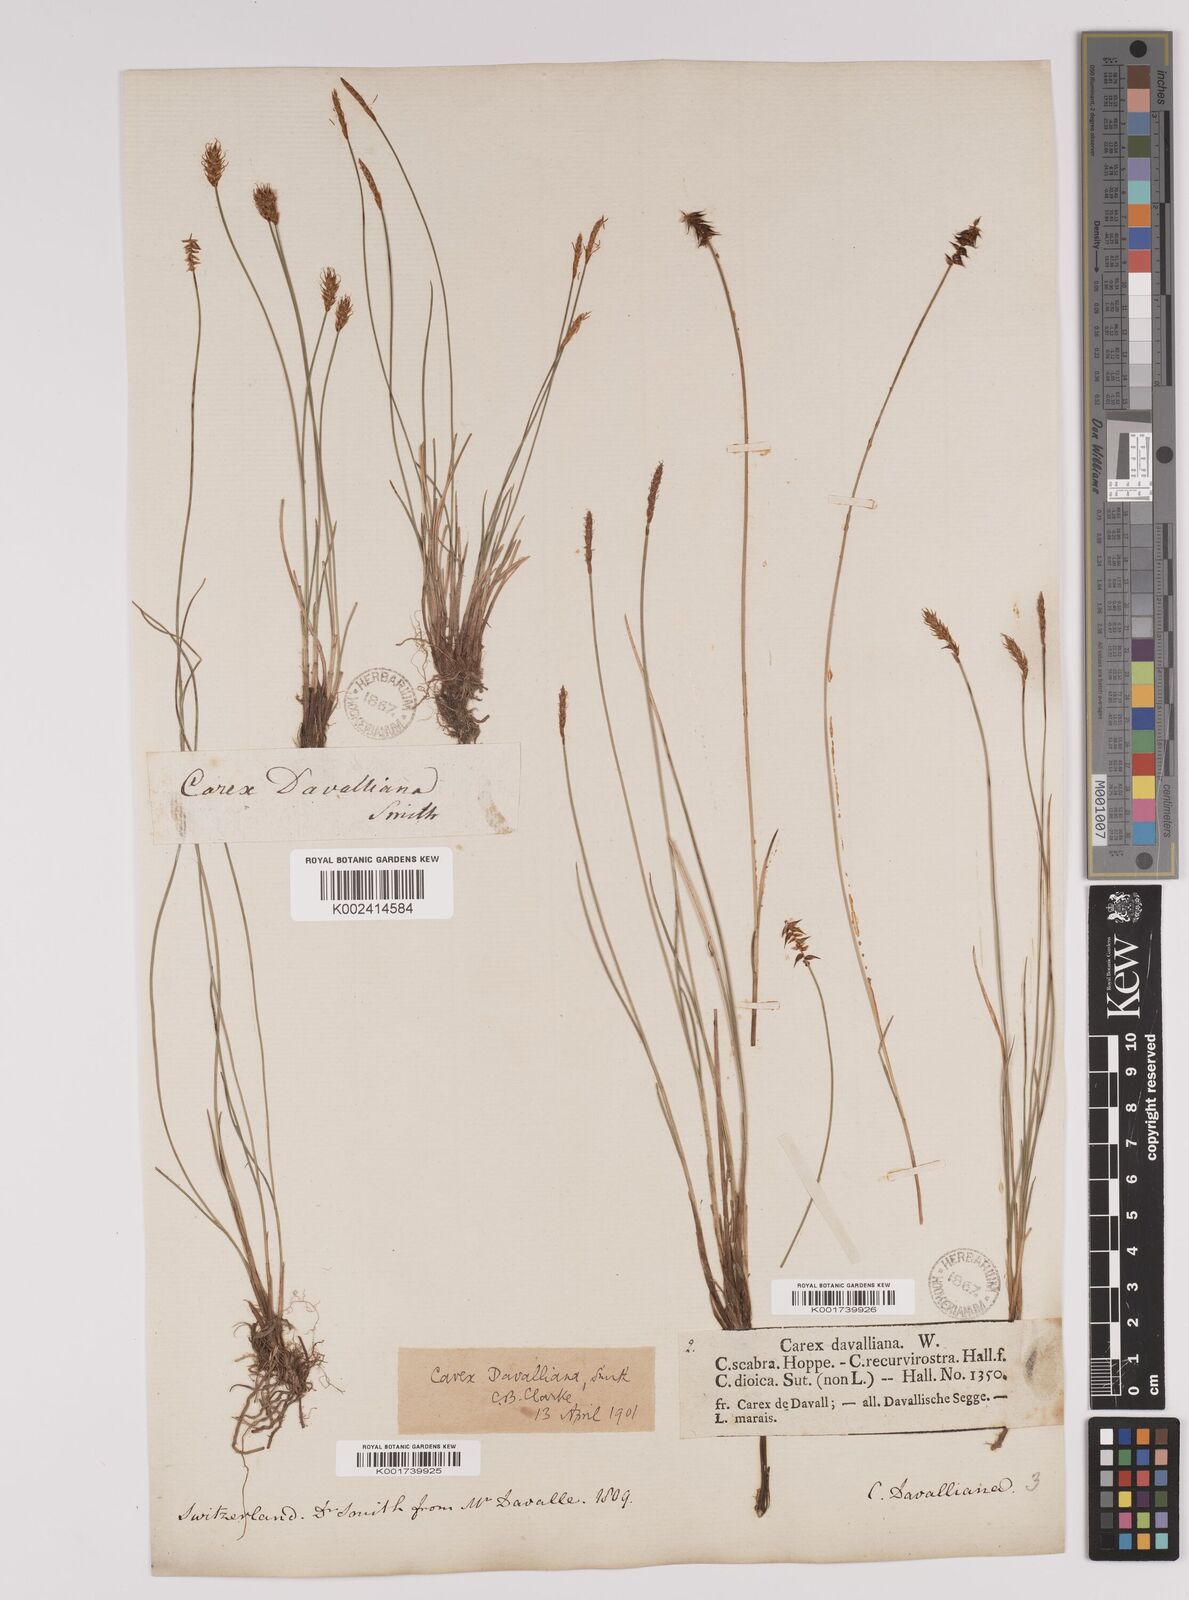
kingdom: Plantae
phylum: Tracheophyta
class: Liliopsida
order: Poales
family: Cyperaceae
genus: Carex
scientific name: Carex davalliana
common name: Davall's sedge
